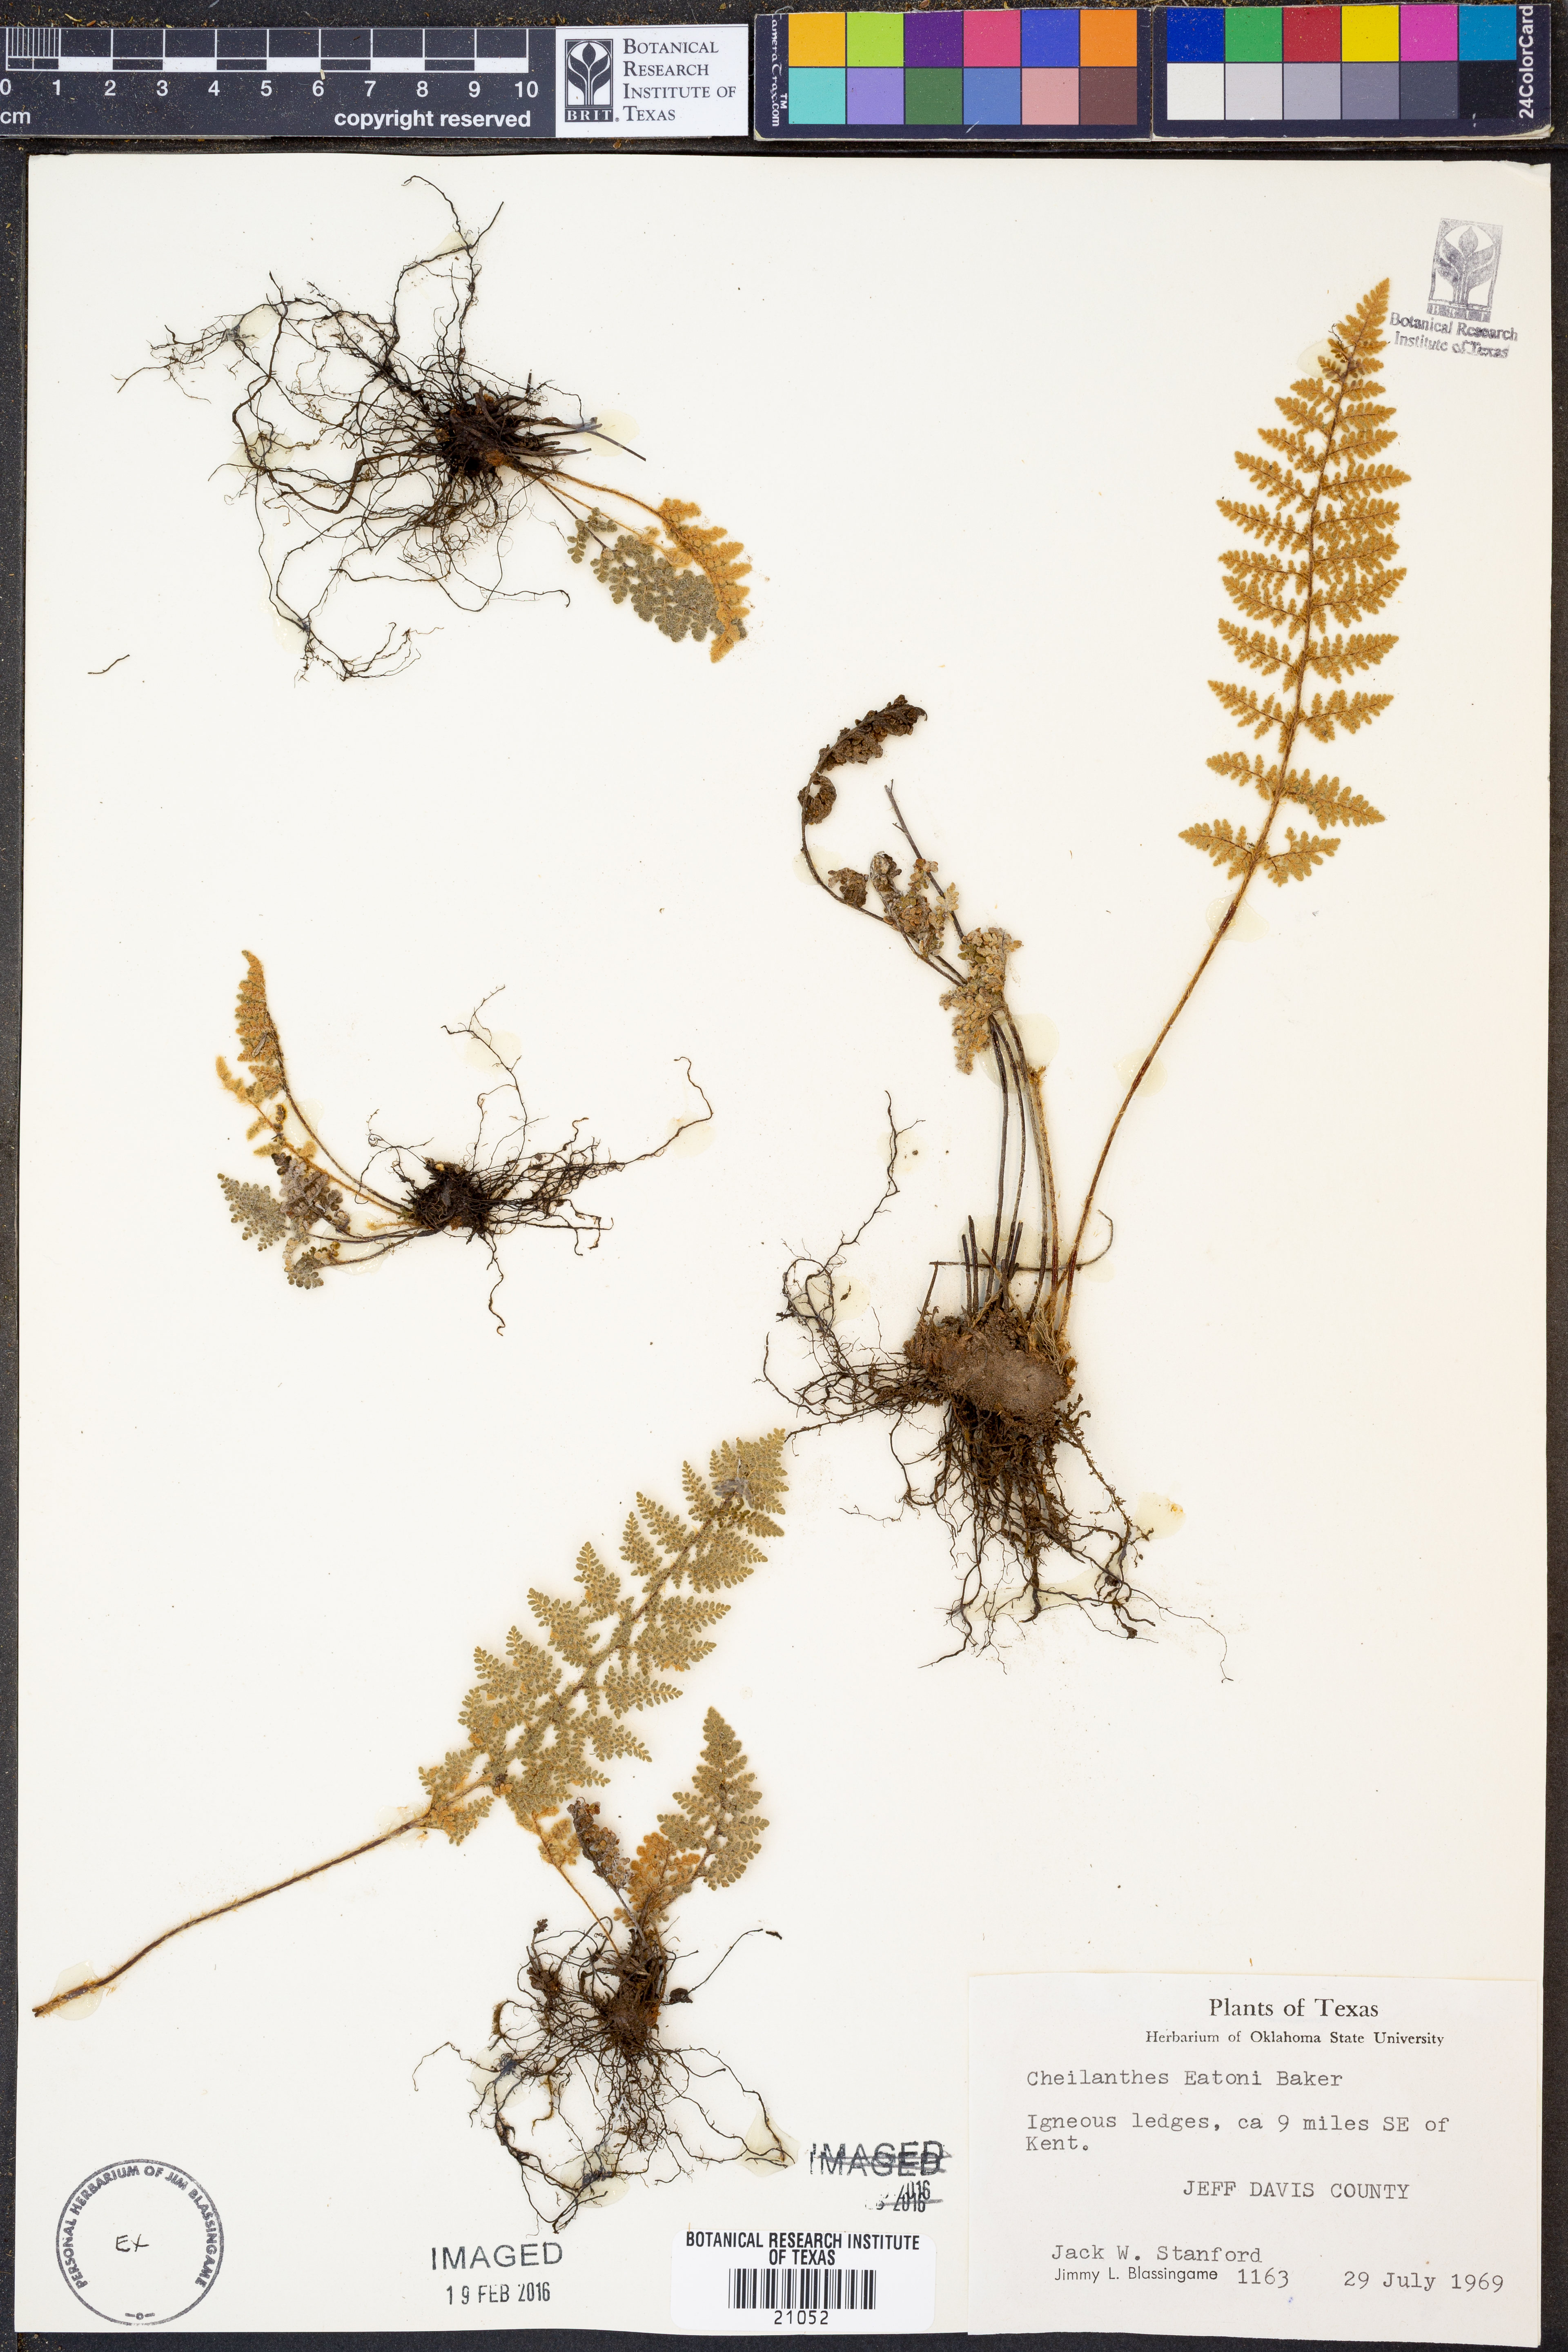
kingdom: Plantae
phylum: Tracheophyta
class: Polypodiopsida
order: Polypodiales
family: Pteridaceae
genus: Myriopteris
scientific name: Myriopteris rufa
